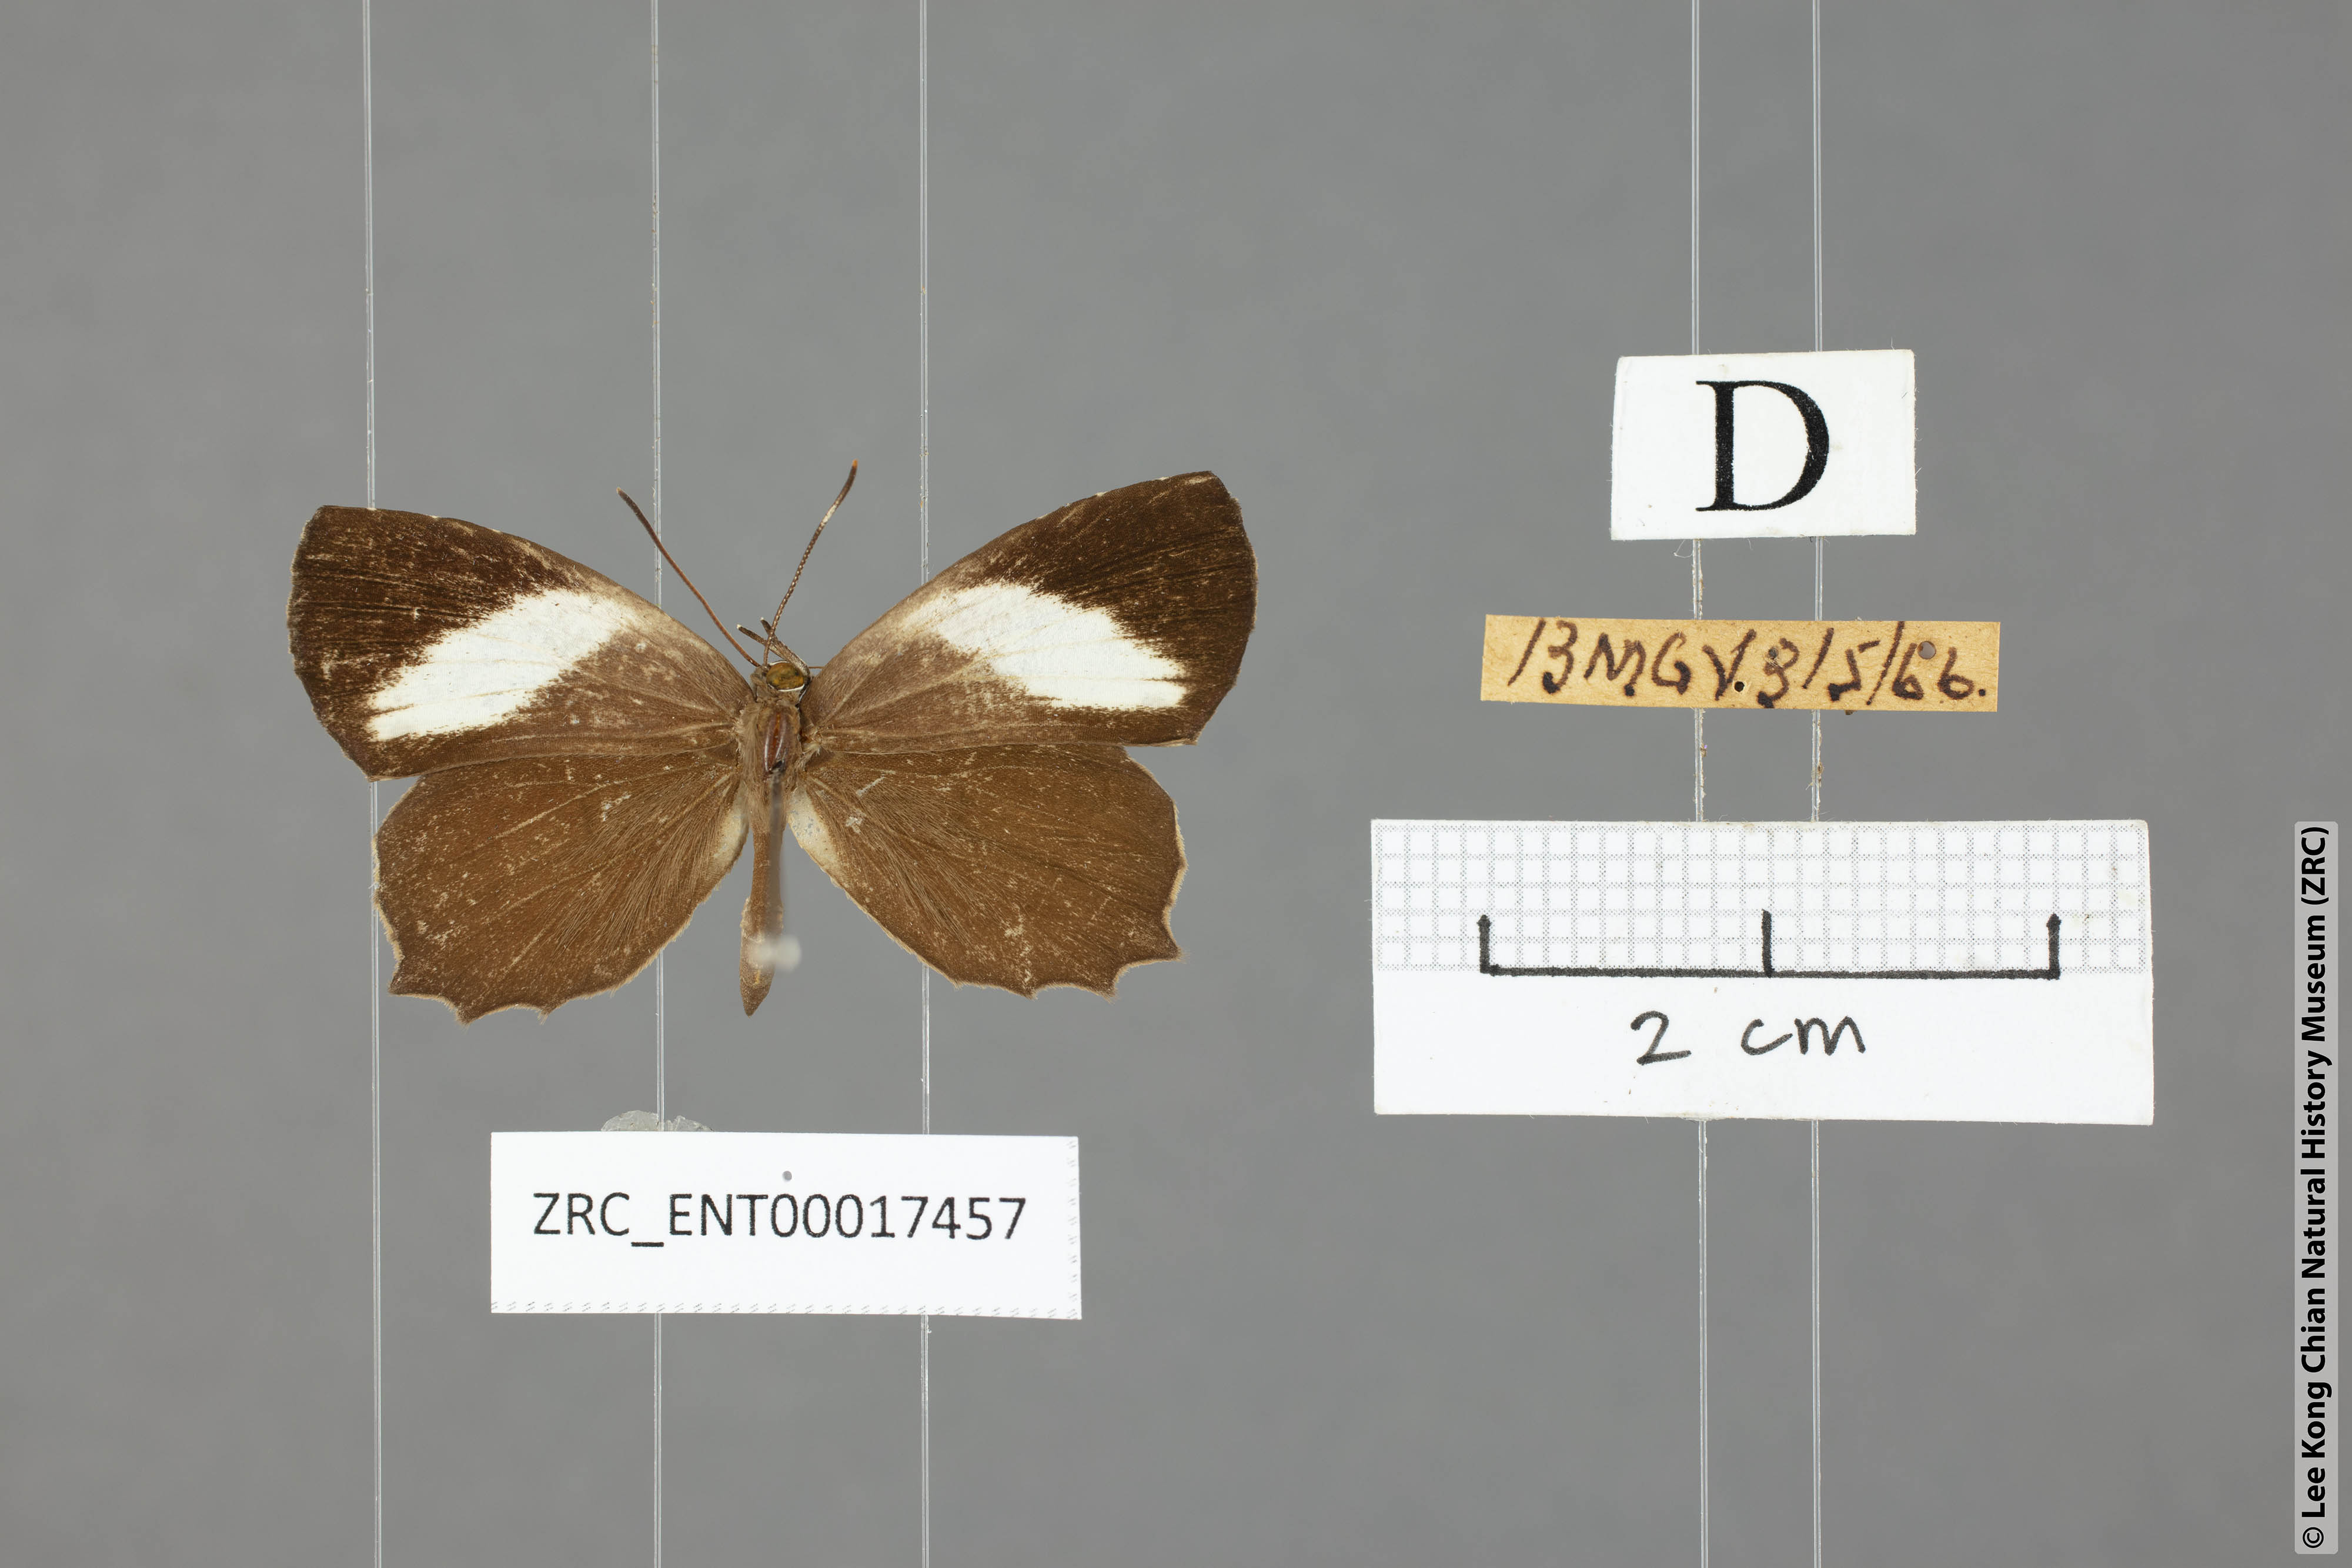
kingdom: Animalia
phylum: Arthropoda
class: Insecta
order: Lepidoptera
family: Lycaenidae
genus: Miletus
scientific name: Miletus gopara
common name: Round-banded brownie
